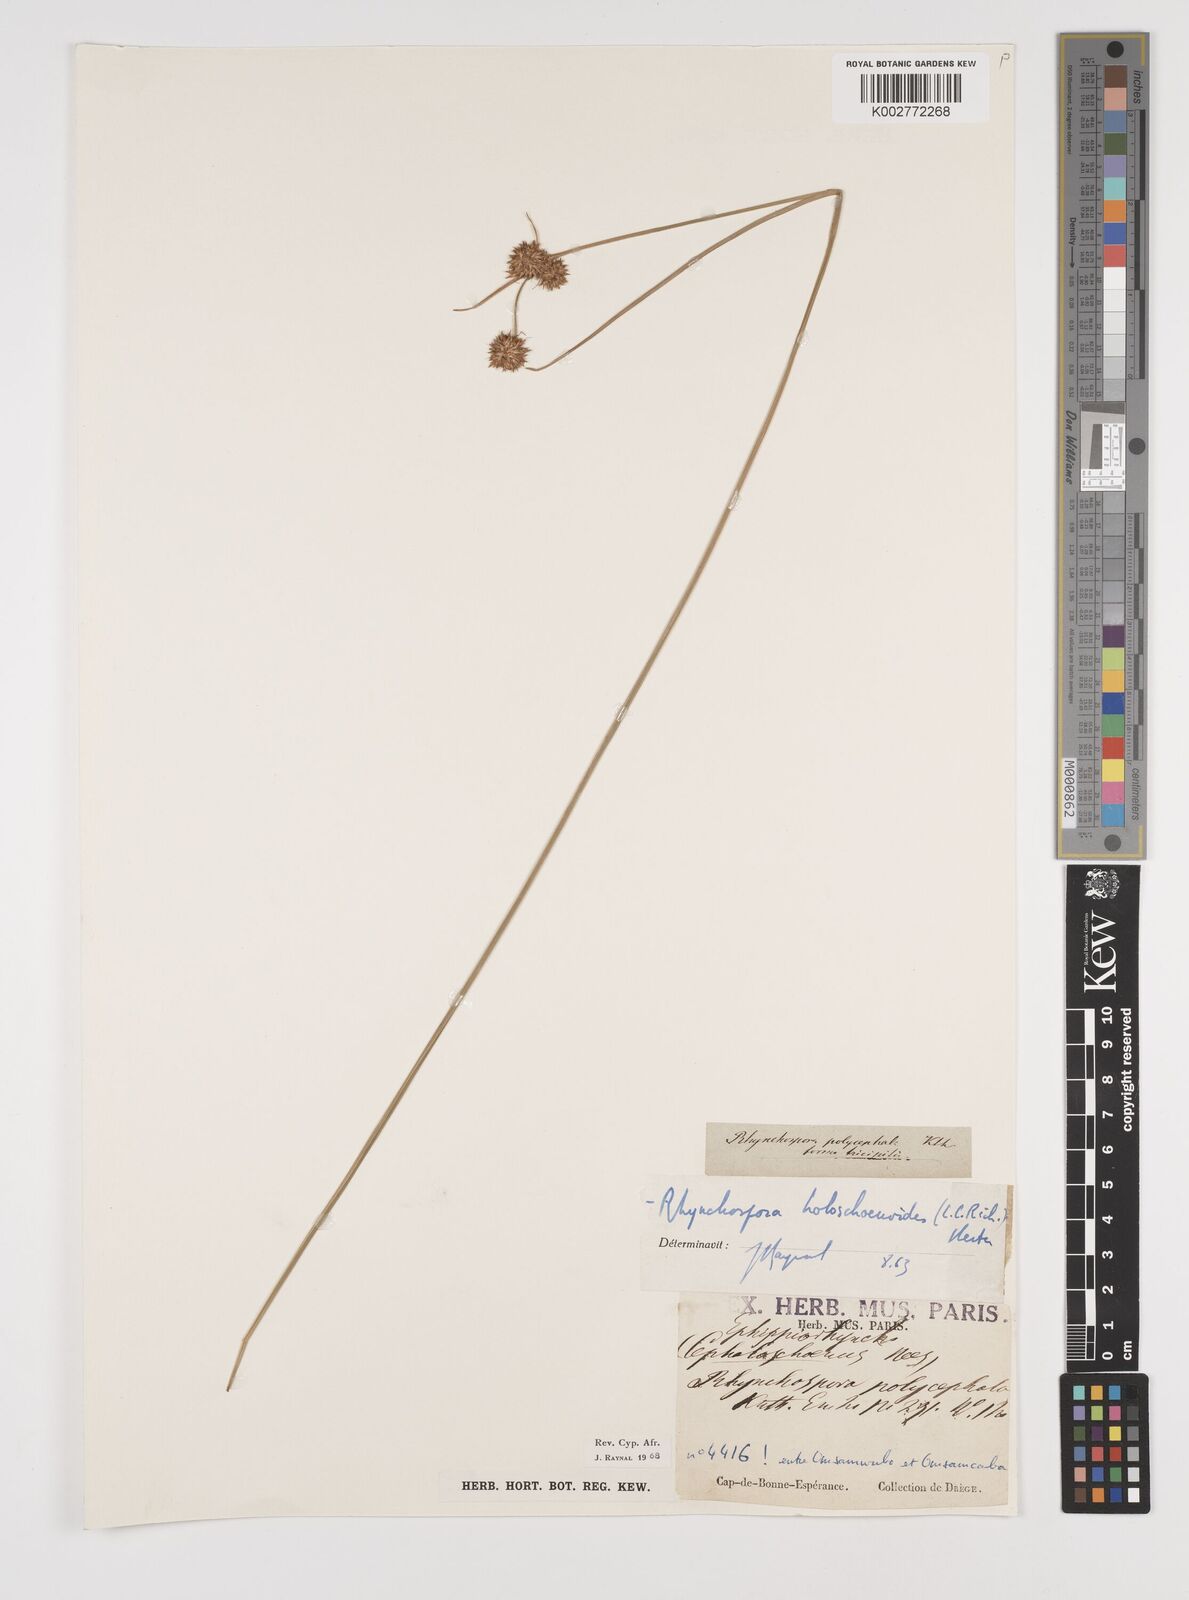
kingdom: Plantae
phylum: Tracheophyta
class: Liliopsida
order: Poales
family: Cyperaceae
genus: Rhynchospora
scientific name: Rhynchospora holoschoenoides
